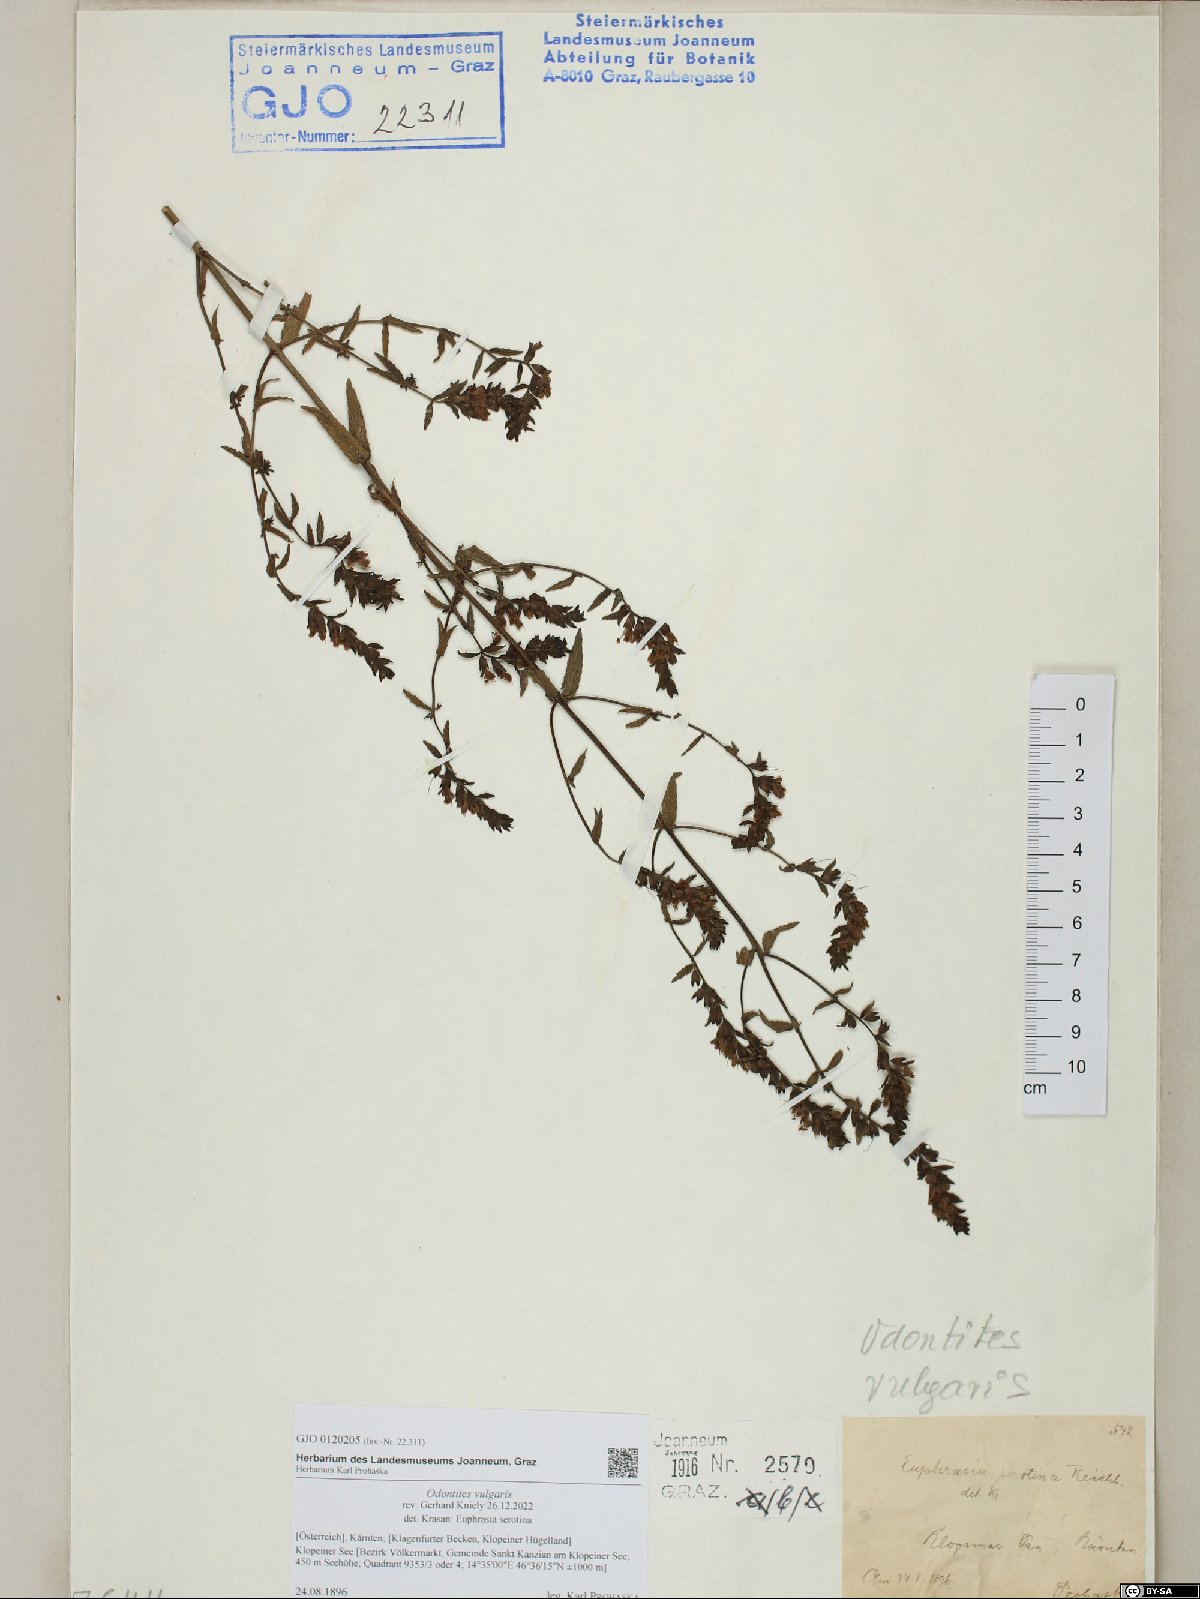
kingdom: Plantae
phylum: Tracheophyta
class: Magnoliopsida
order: Lamiales
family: Orobanchaceae
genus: Odontites
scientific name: Odontites vulgaris
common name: Broomrape
